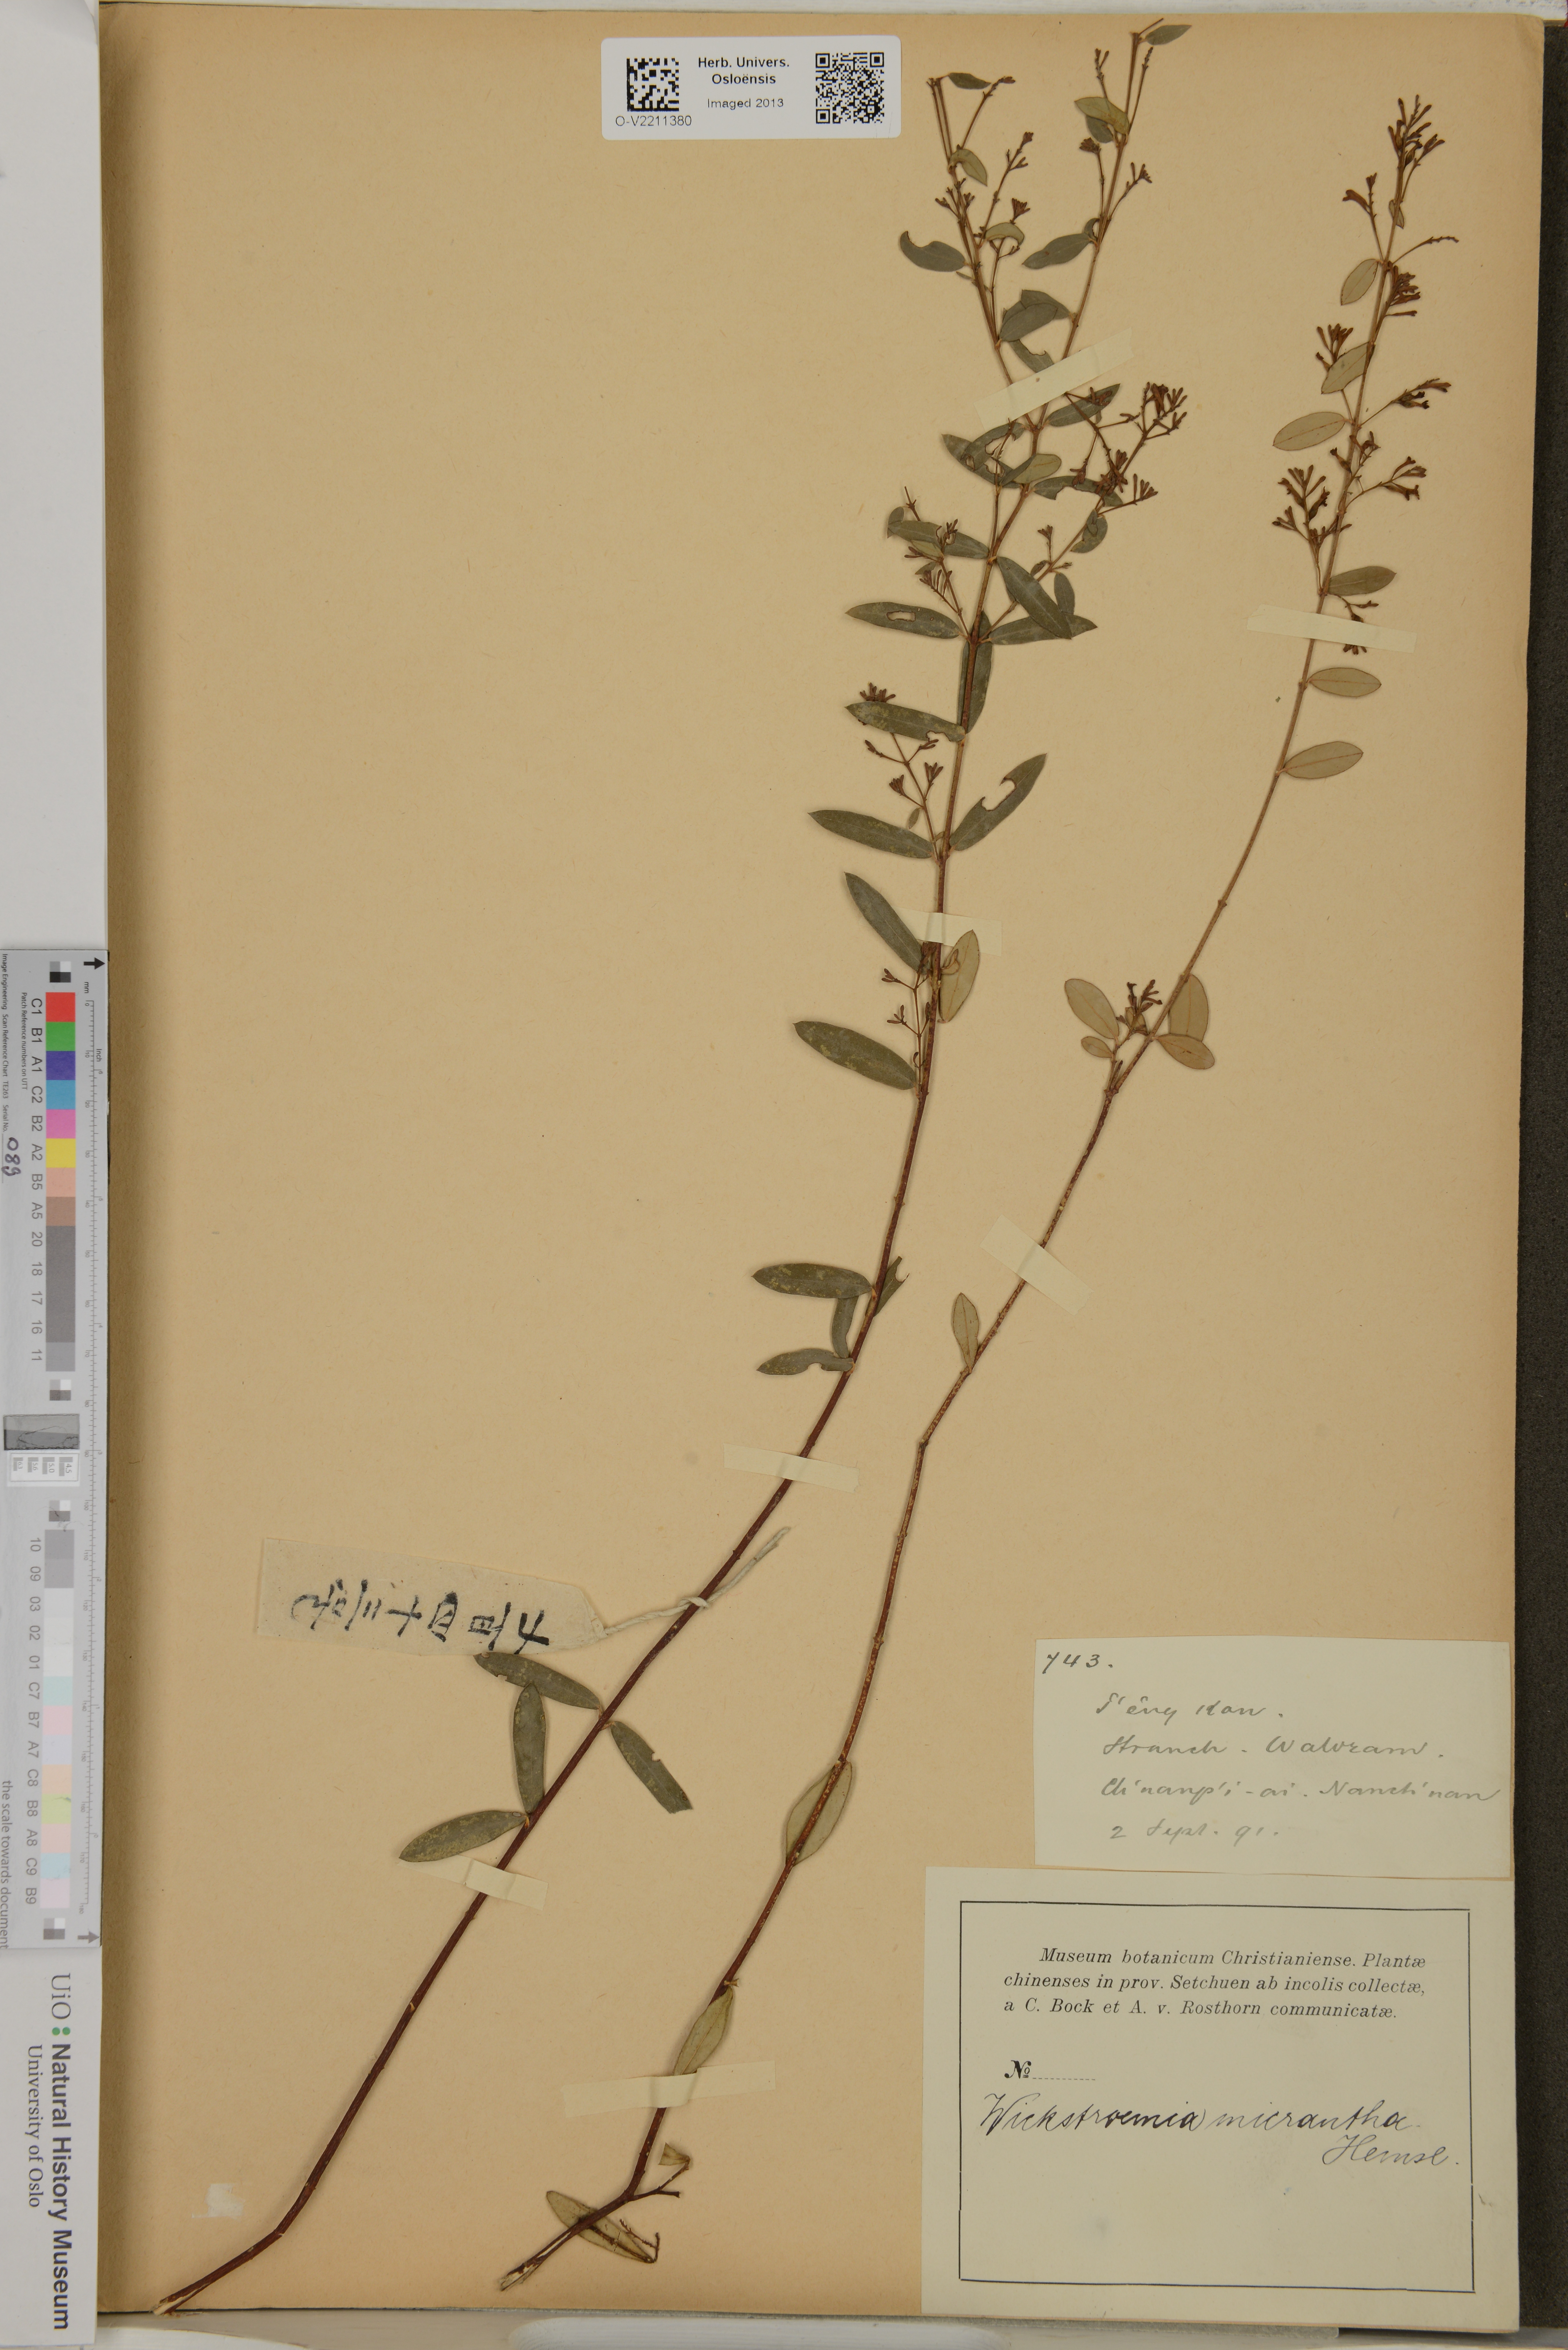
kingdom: Plantae
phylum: Tracheophyta
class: Magnoliopsida
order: Malvales
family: Thymelaeaceae
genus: Wikstroemia
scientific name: Wikstroemia micrantha
